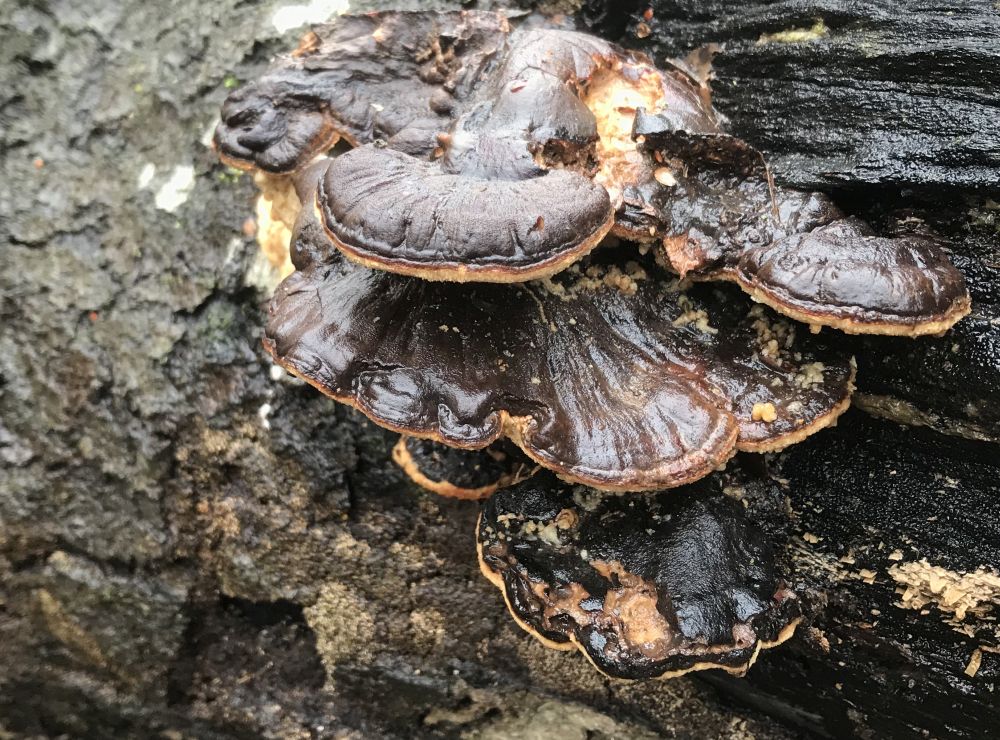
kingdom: Fungi
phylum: Basidiomycota
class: Agaricomycetes
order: Polyporales
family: Ischnodermataceae
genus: Ischnoderma
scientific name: Ischnoderma resinosum
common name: løv-tjæreporesvamp
